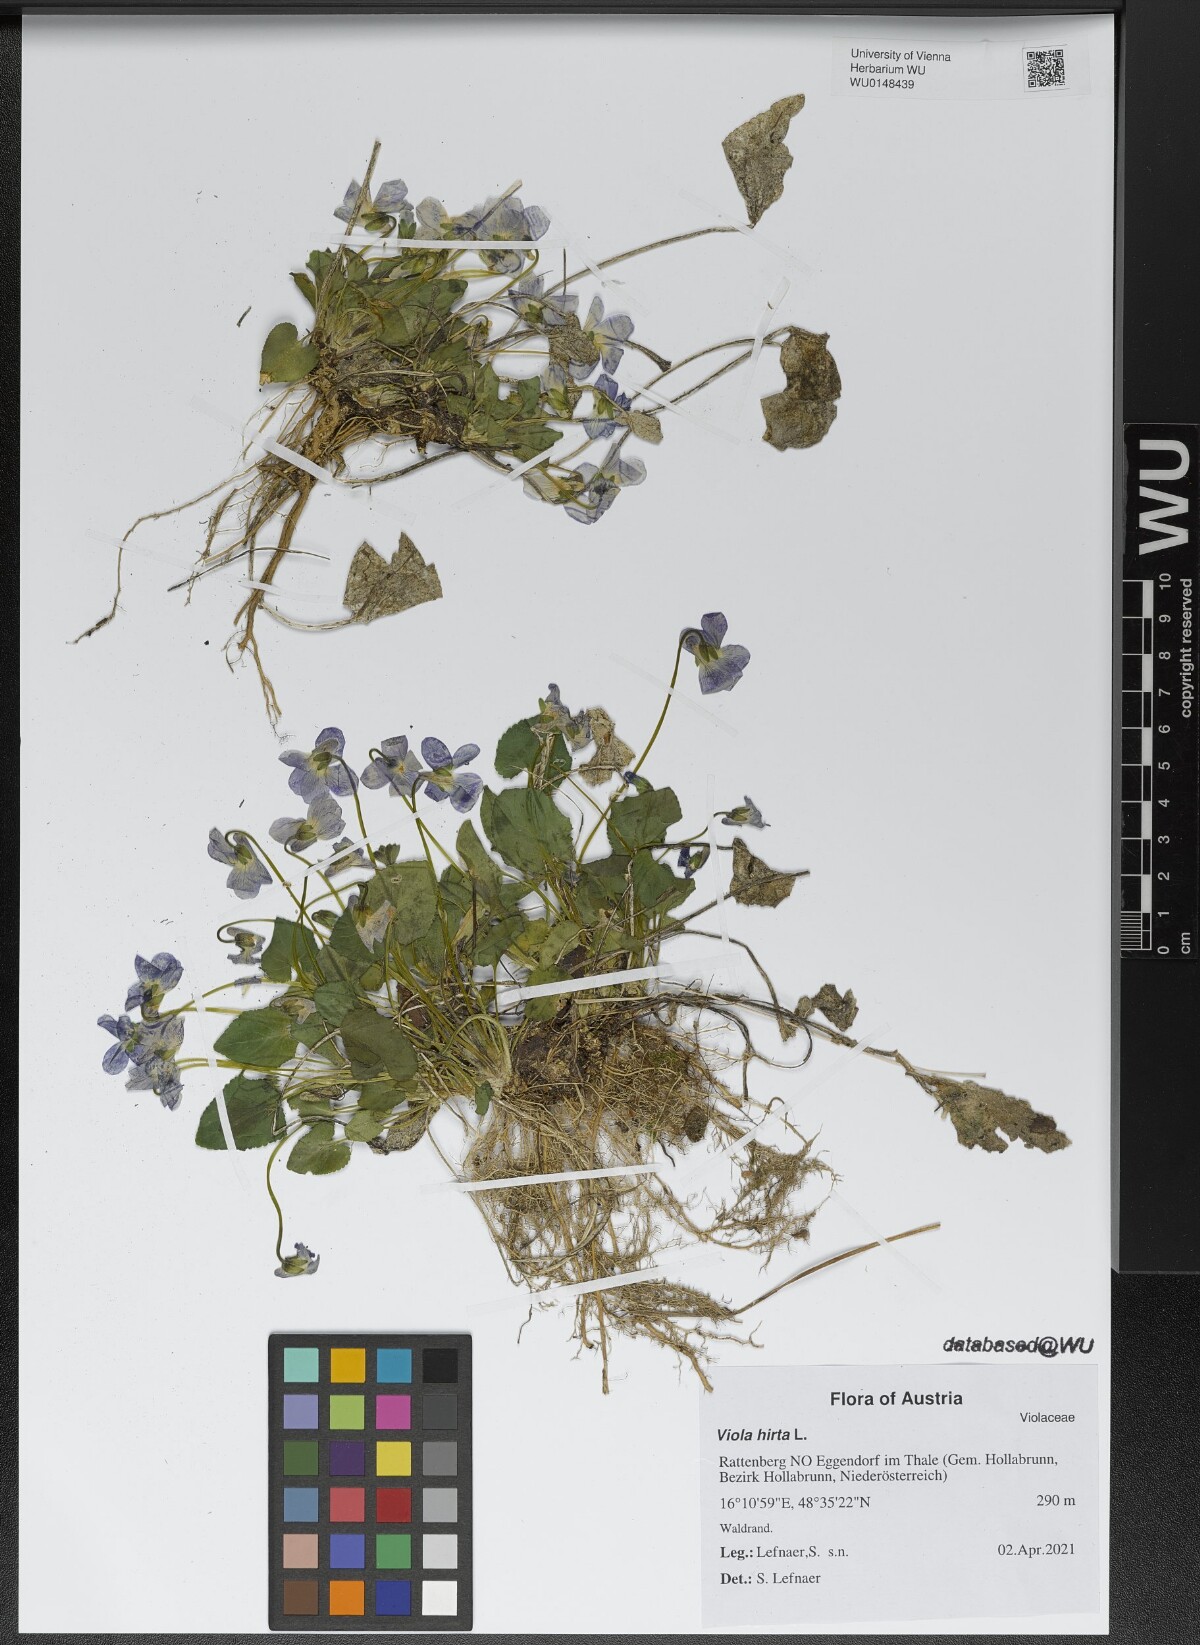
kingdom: Plantae
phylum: Tracheophyta
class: Magnoliopsida
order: Malpighiales
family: Violaceae
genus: Viola
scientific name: Viola hirta
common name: Hairy violet
